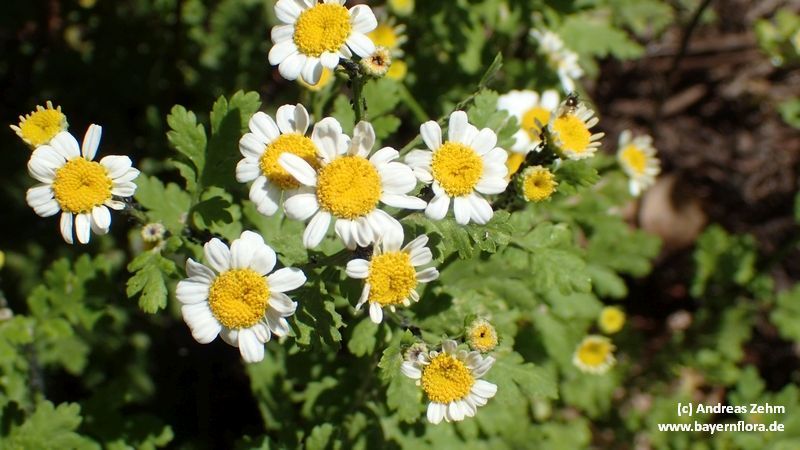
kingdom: Plantae
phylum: Tracheophyta
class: Magnoliopsida
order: Asterales
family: Asteraceae
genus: Tanacetum
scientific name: Tanacetum parthenium
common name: Feverfew
